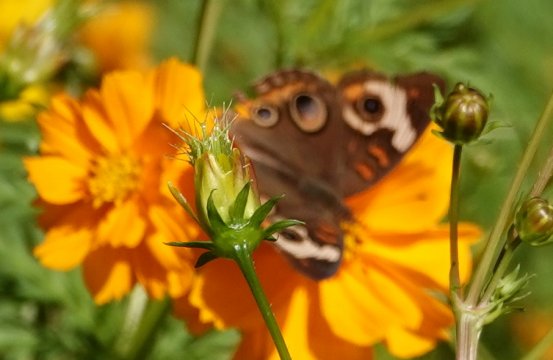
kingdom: Animalia
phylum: Arthropoda
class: Insecta
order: Lepidoptera
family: Nymphalidae
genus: Junonia
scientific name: Junonia coenia
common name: Common Buckeye
